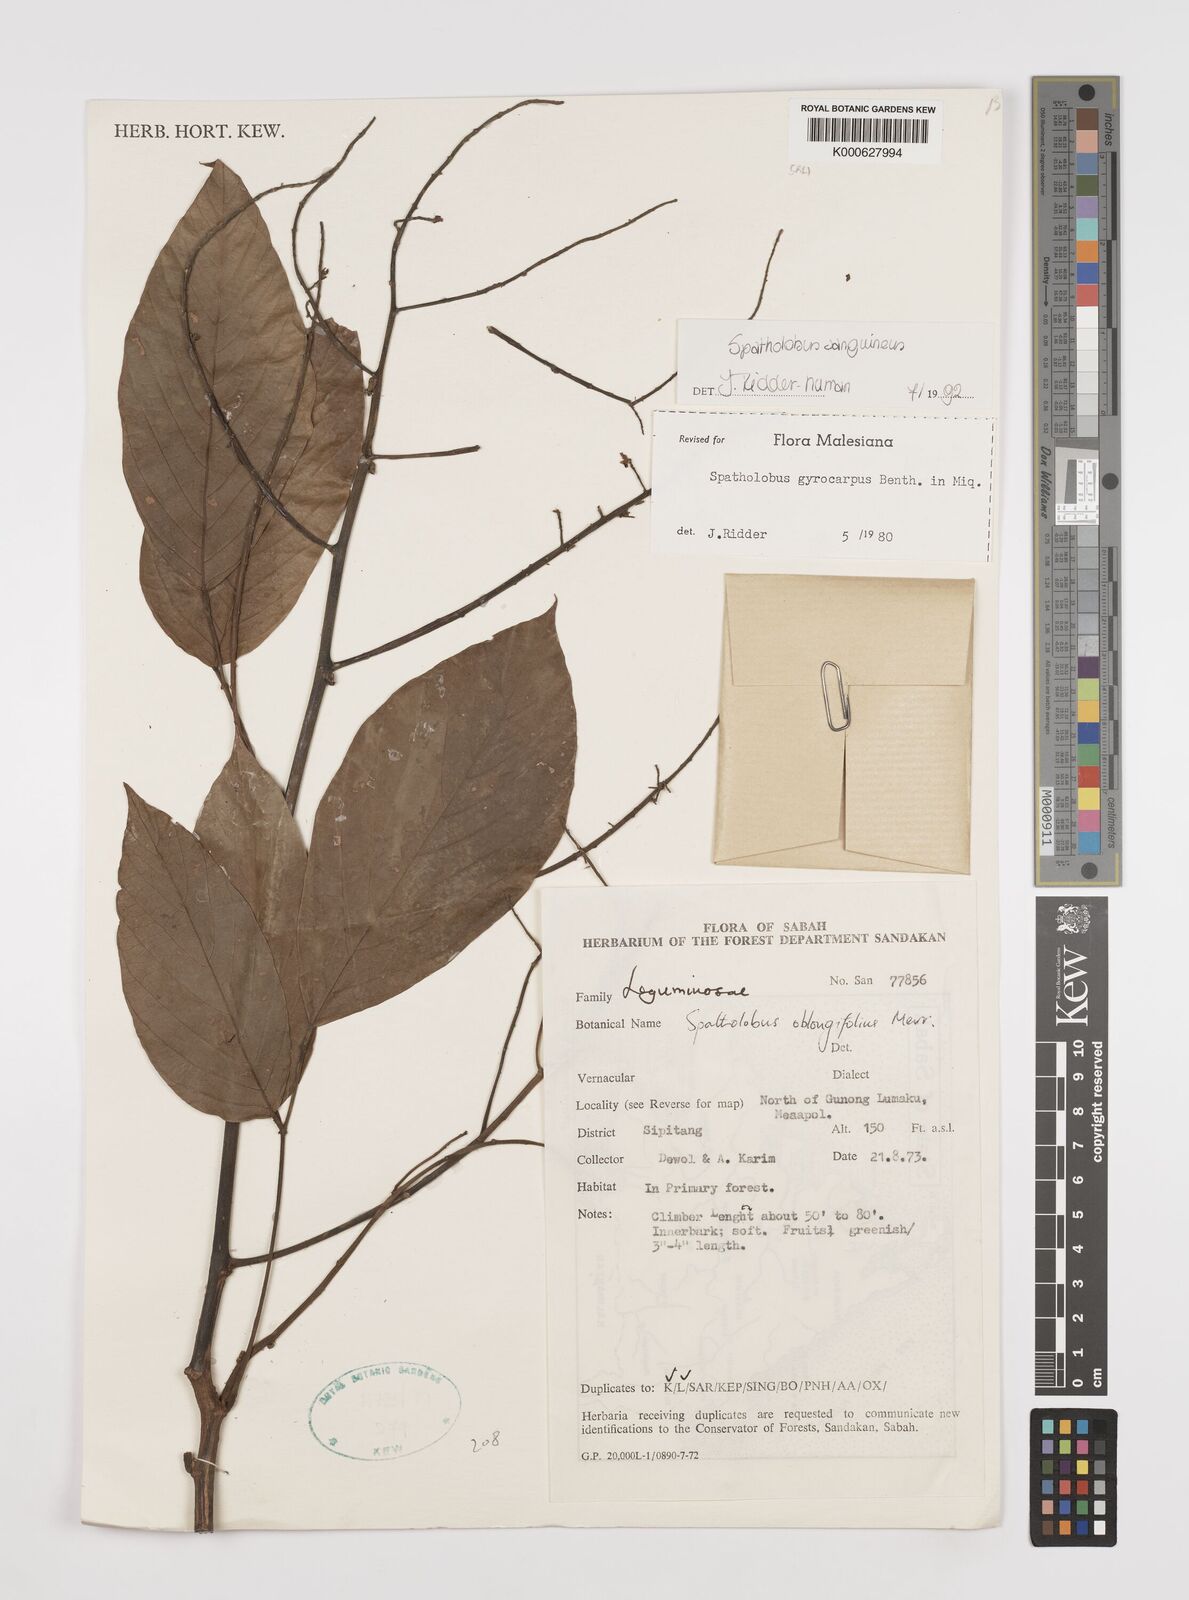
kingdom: Plantae
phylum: Tracheophyta
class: Magnoliopsida
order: Fabales
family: Fabaceae
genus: Spatholobus
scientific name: Spatholobus
